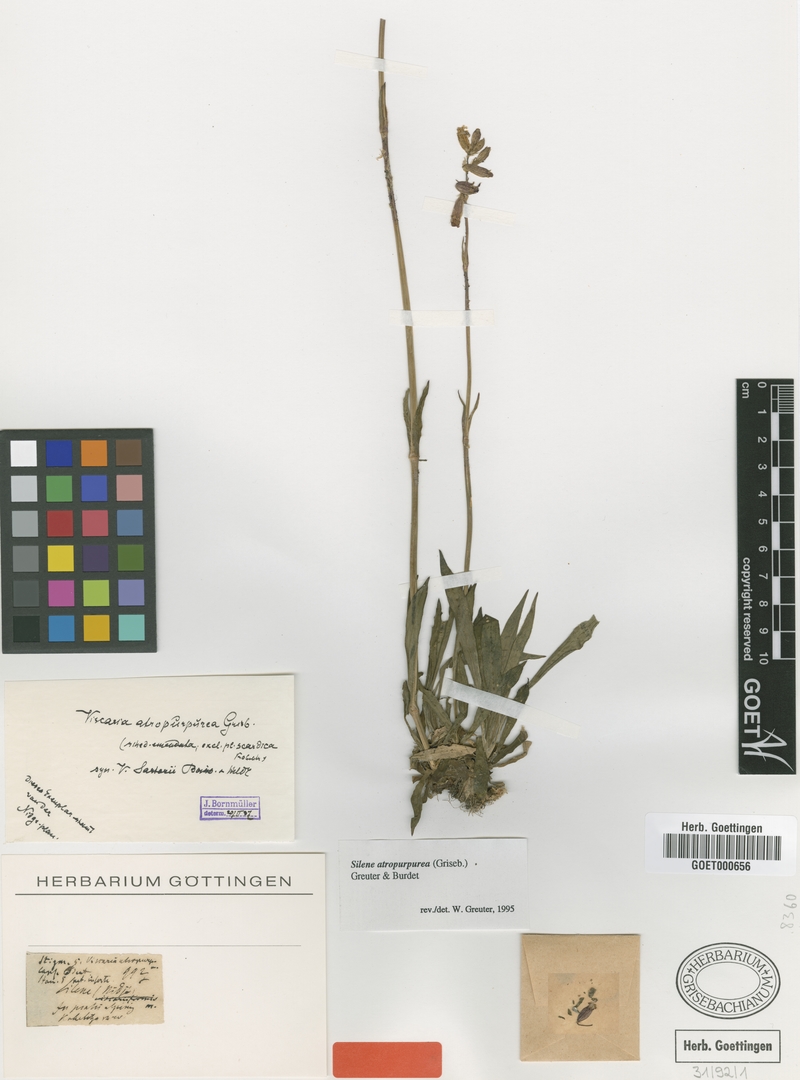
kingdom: Plantae
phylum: Tracheophyta
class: Magnoliopsida
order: Caryophyllales
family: Caryophyllaceae
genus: Viscaria
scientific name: Viscaria atropurpurea
